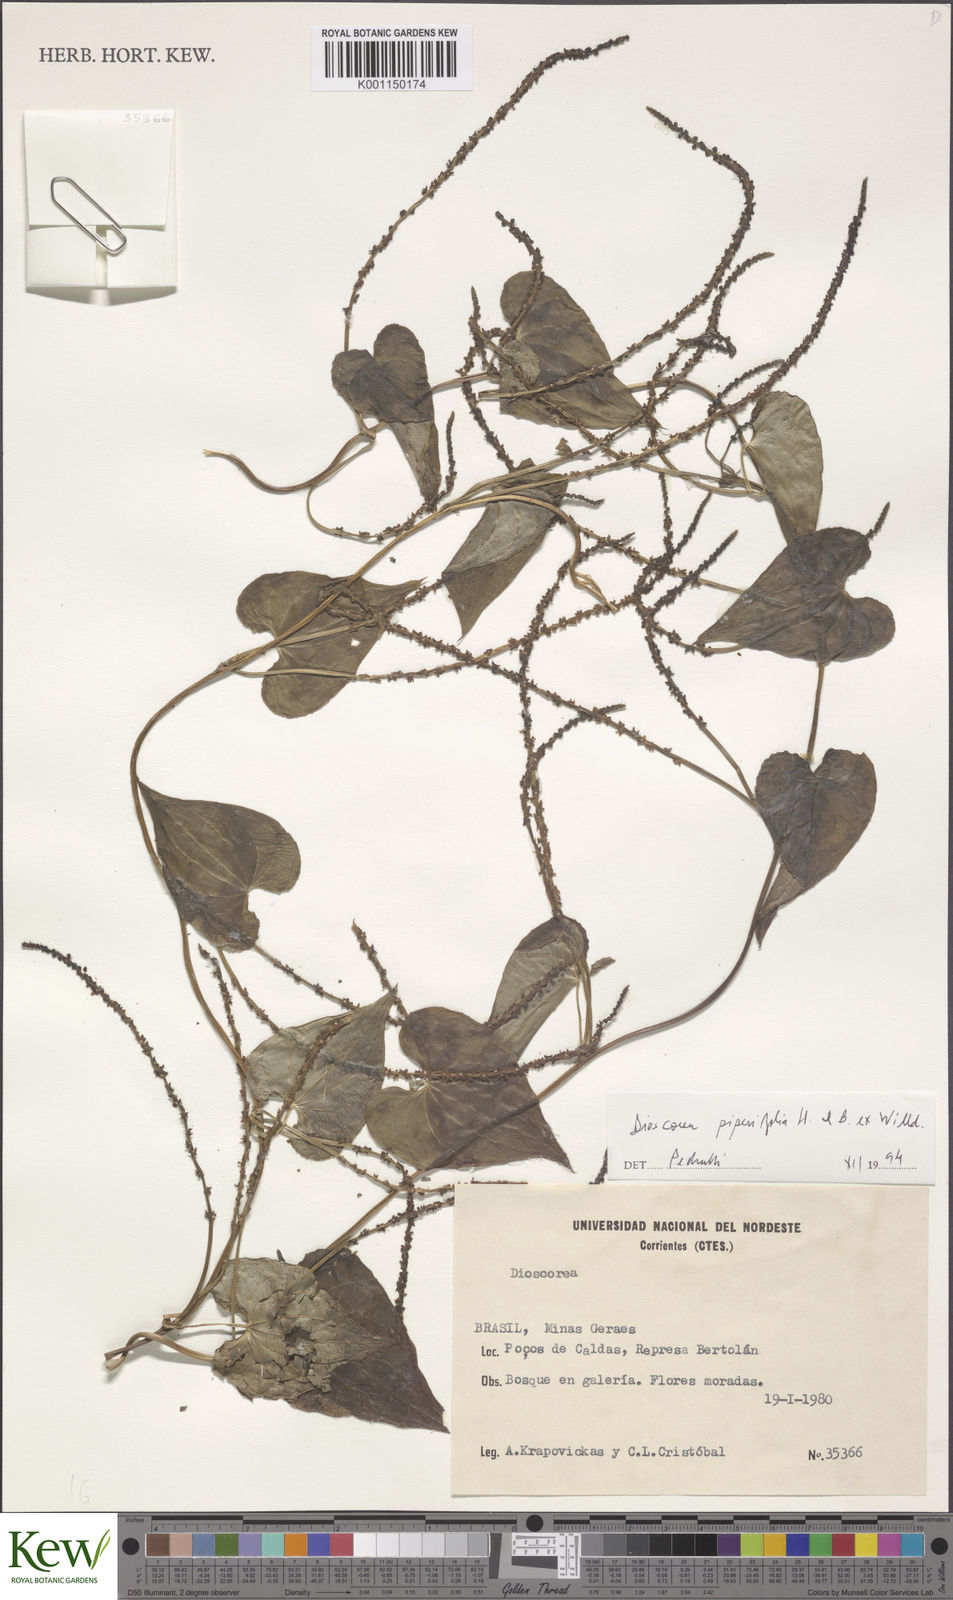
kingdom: Plantae
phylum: Tracheophyta
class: Liliopsida
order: Dioscoreales
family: Dioscoreaceae
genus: Dioscorea
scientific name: Dioscorea
